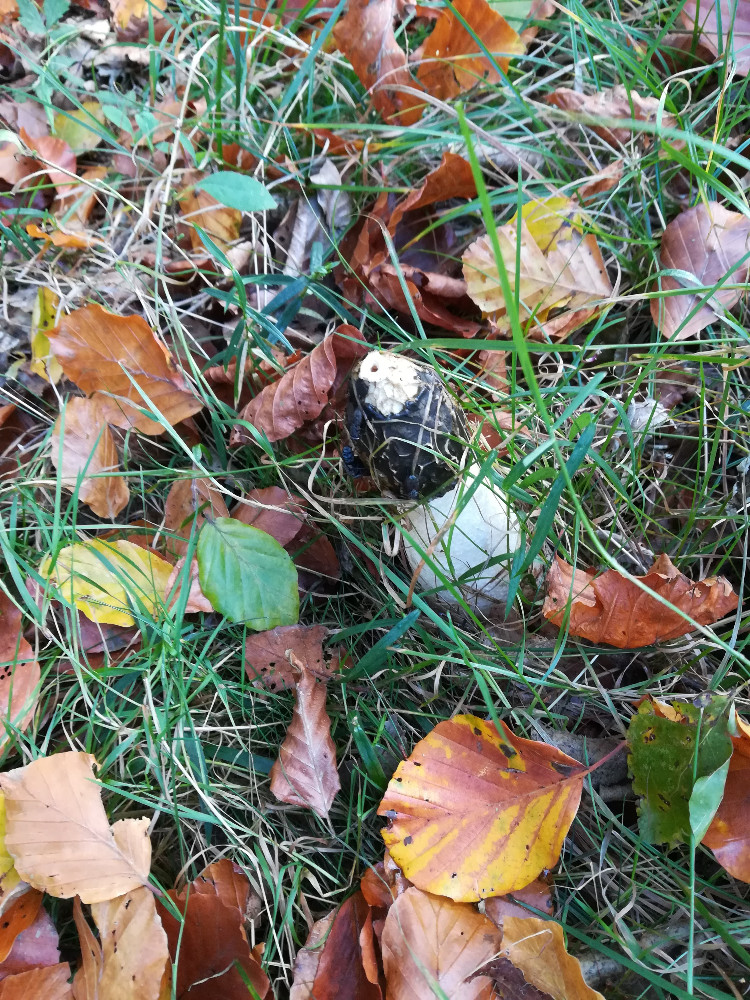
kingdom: Fungi
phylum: Basidiomycota
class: Agaricomycetes
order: Phallales
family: Phallaceae
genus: Phallus
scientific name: Phallus impudicus
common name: almindelig stinksvamp
